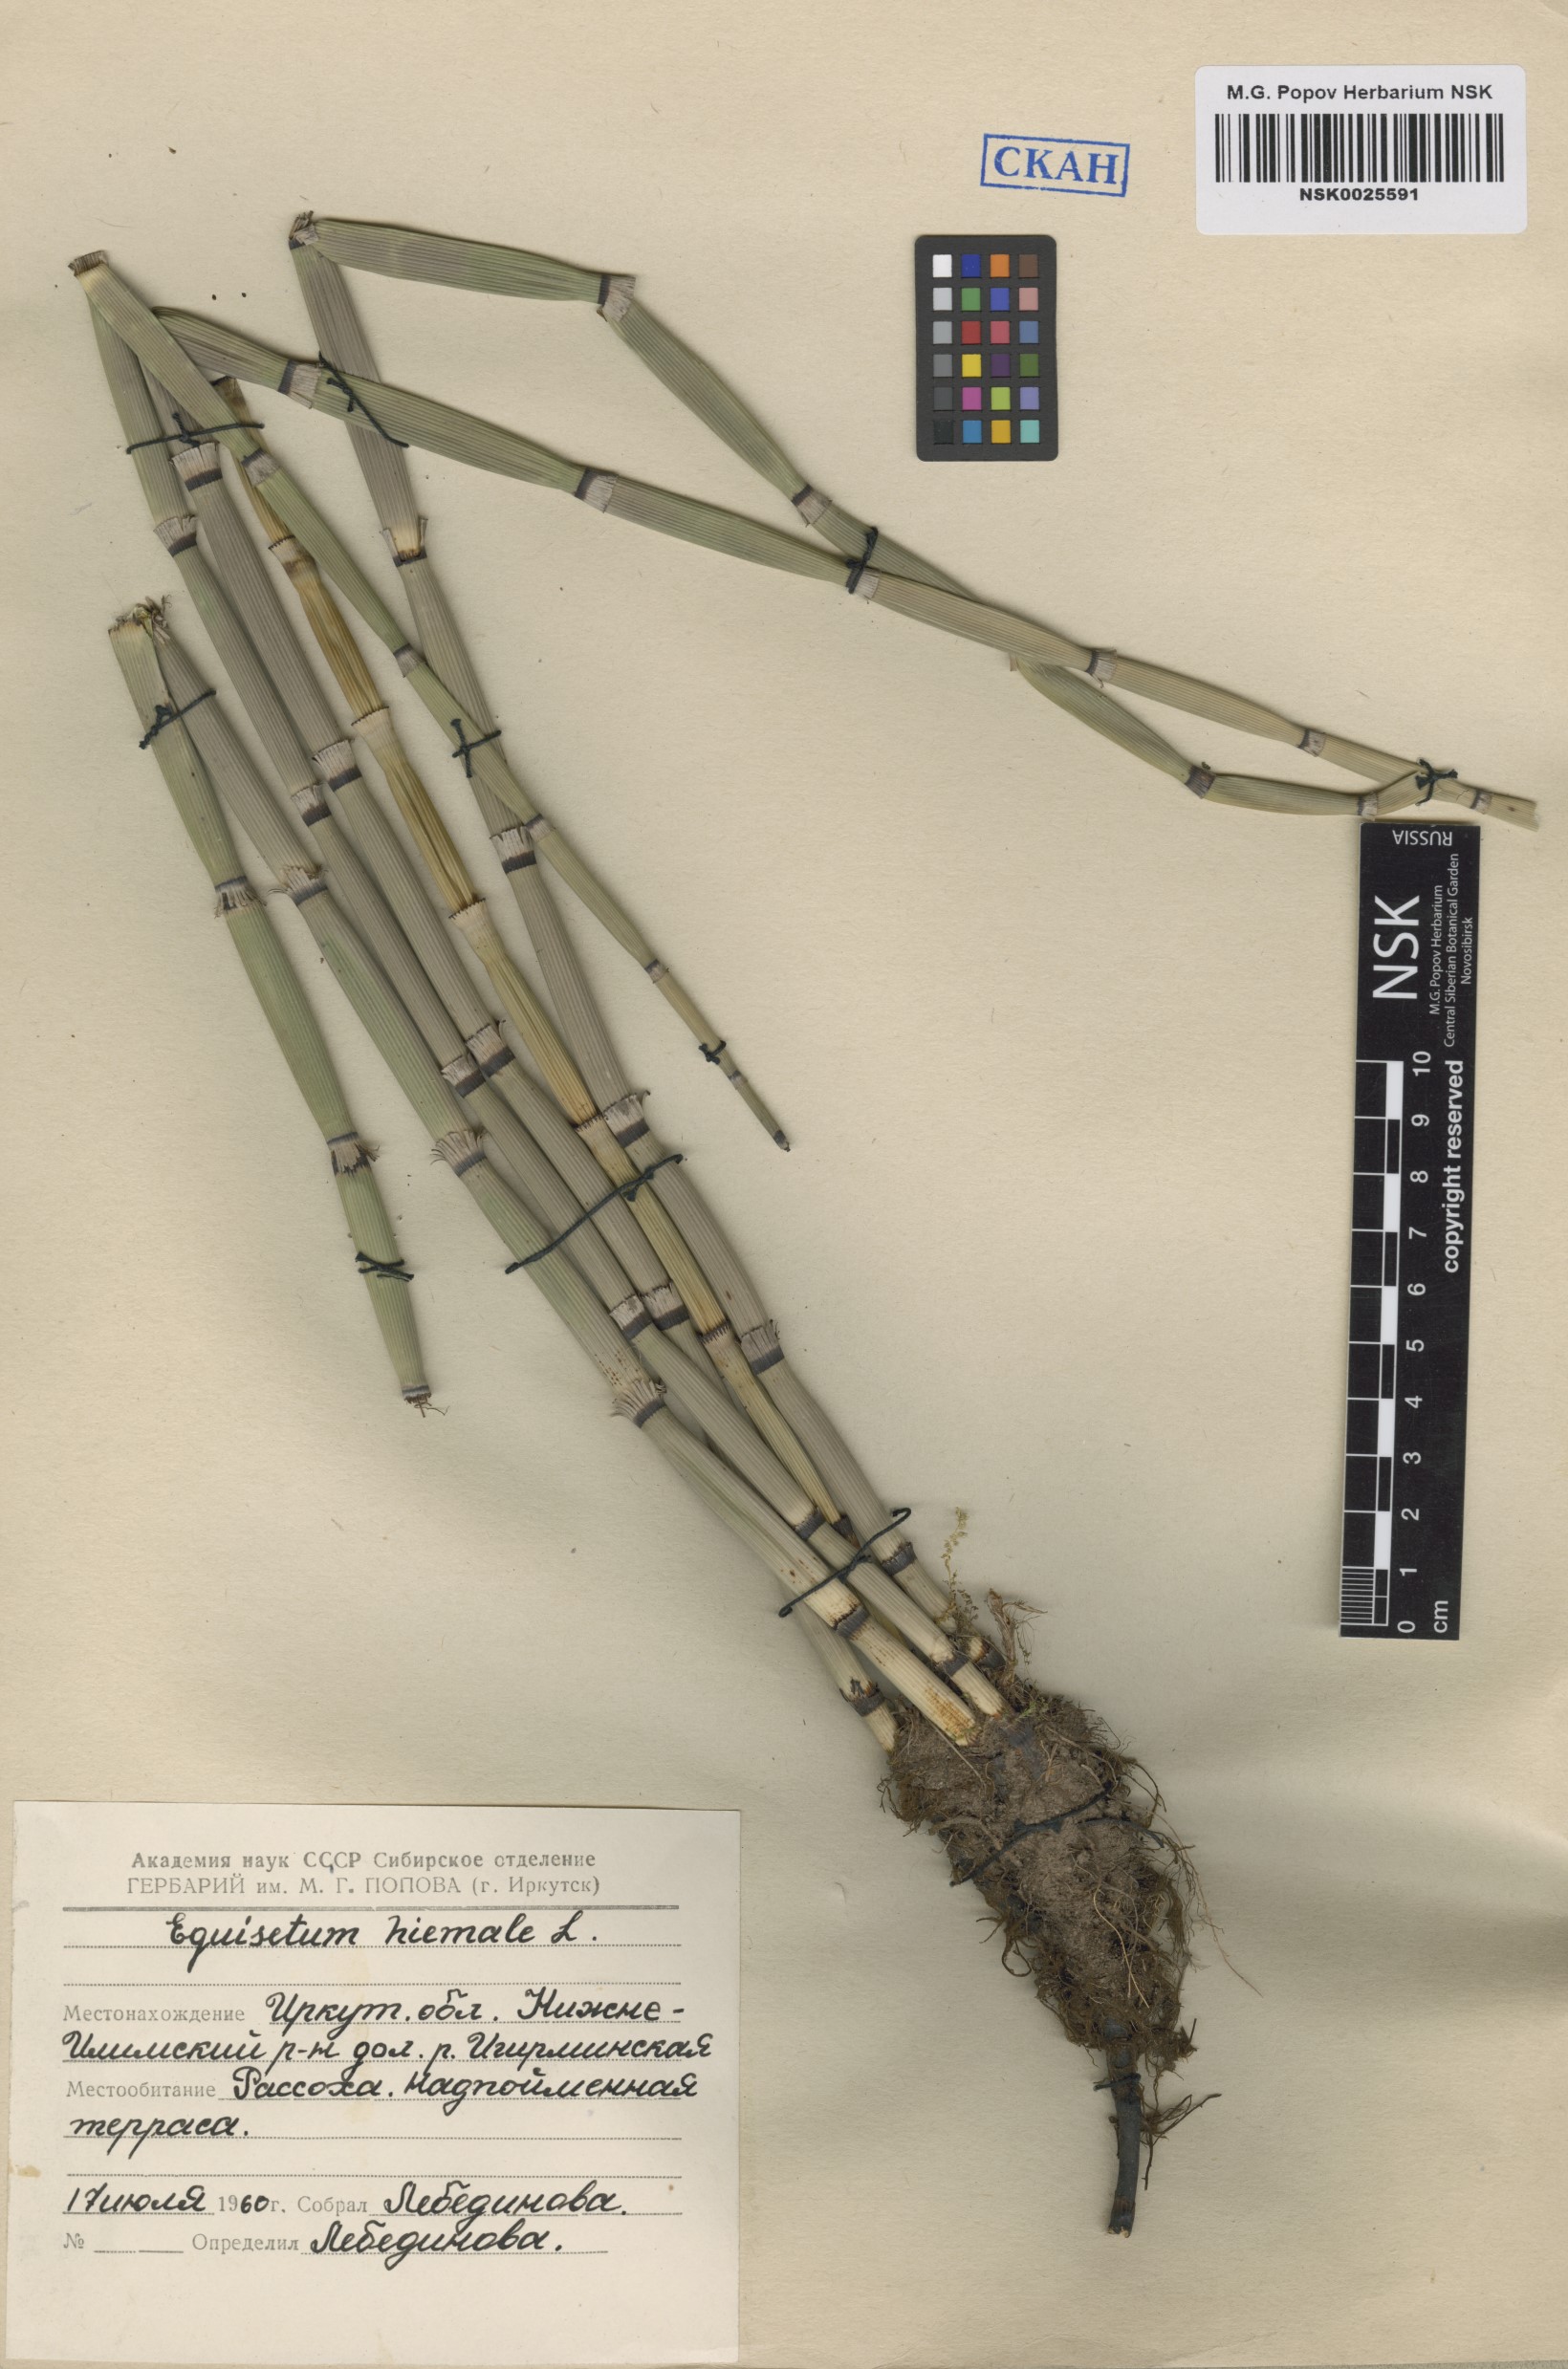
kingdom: Plantae
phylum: Tracheophyta
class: Polypodiopsida
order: Equisetales
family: Equisetaceae
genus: Equisetum
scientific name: Equisetum hyemale
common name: Rough horsetail
